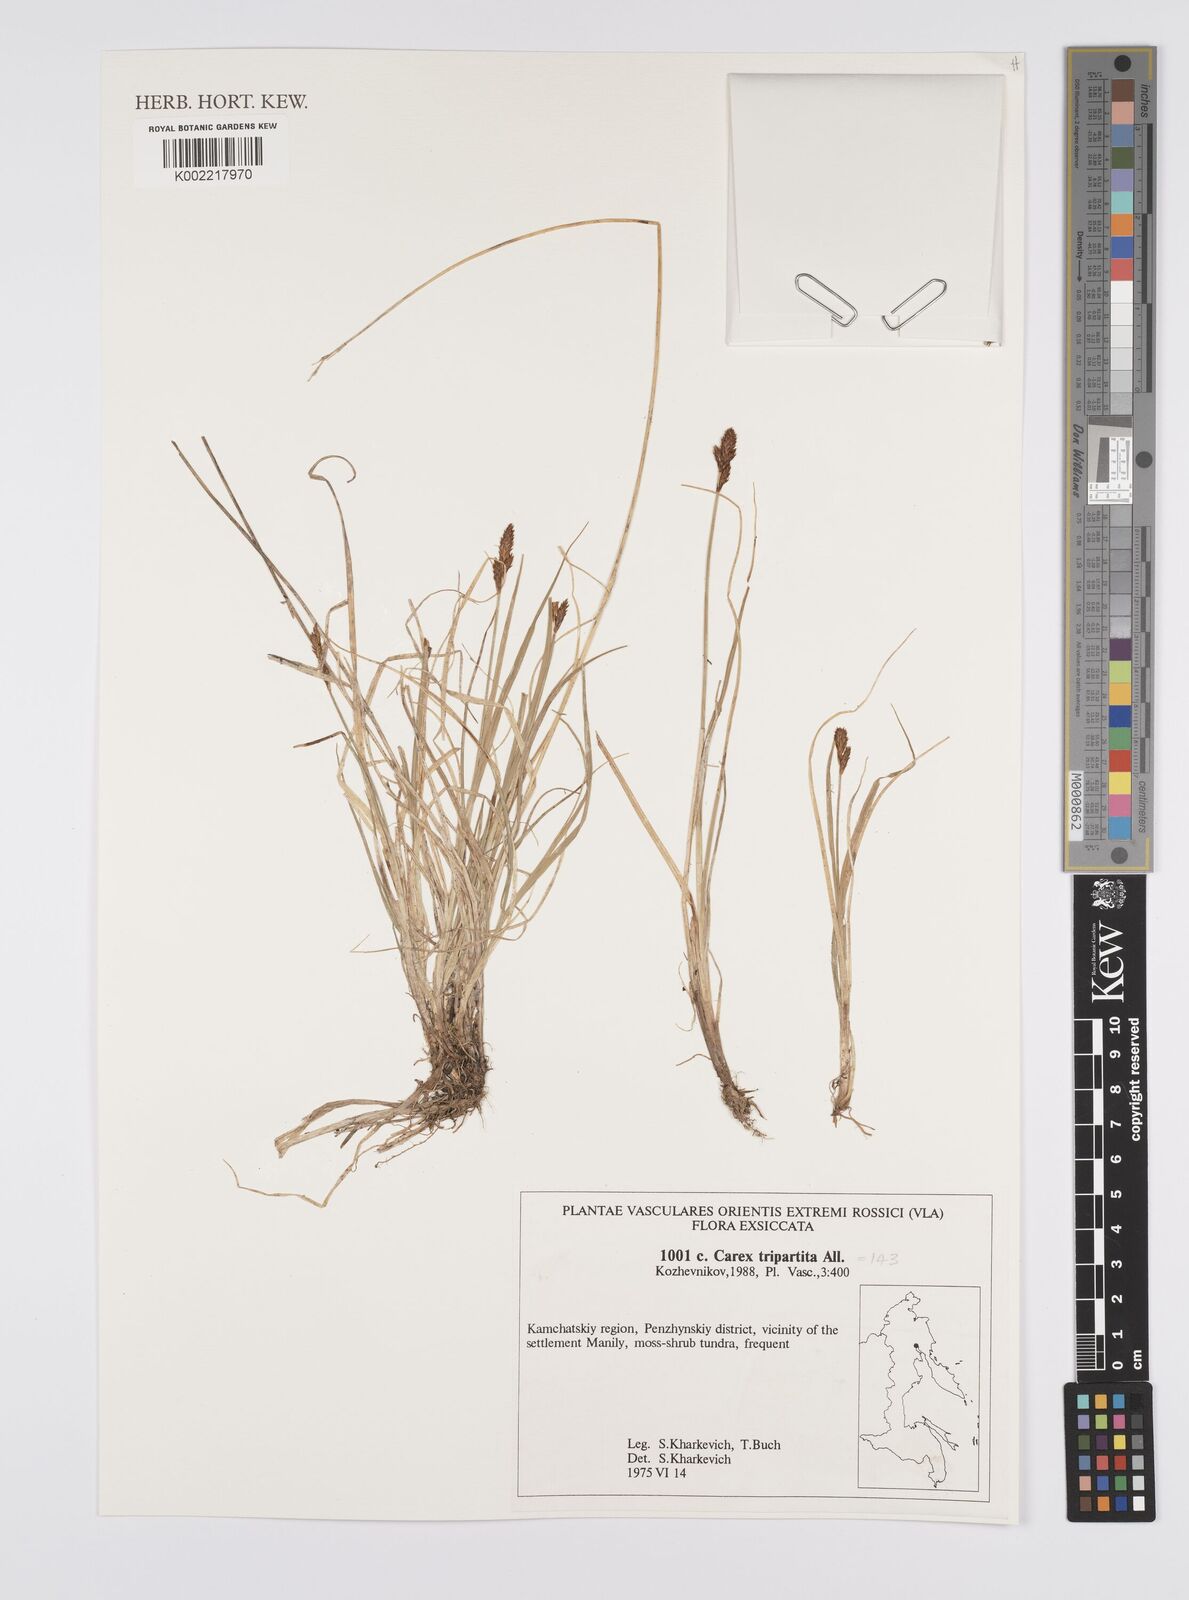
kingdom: Plantae
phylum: Tracheophyta
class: Liliopsida
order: Poales
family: Cyperaceae
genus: Carex
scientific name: Carex curvula
